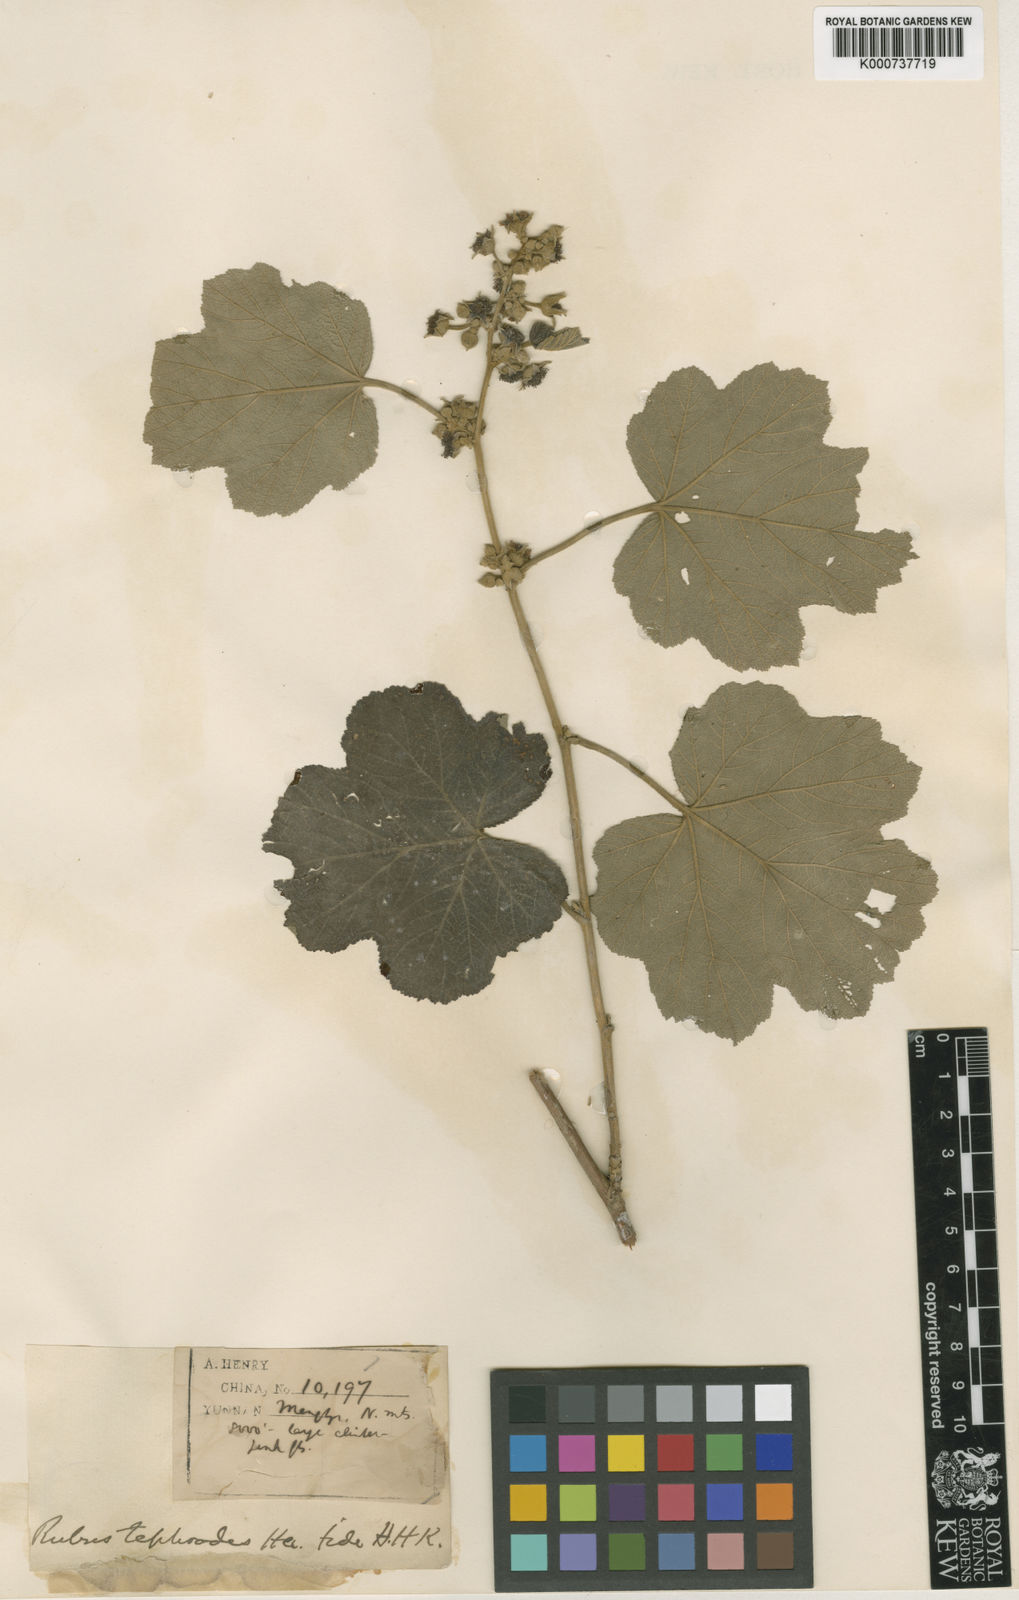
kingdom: Plantae
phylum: Tracheophyta
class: Magnoliopsida
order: Rosales
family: Rosaceae
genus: Rubus
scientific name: Rubus setchuenensis
